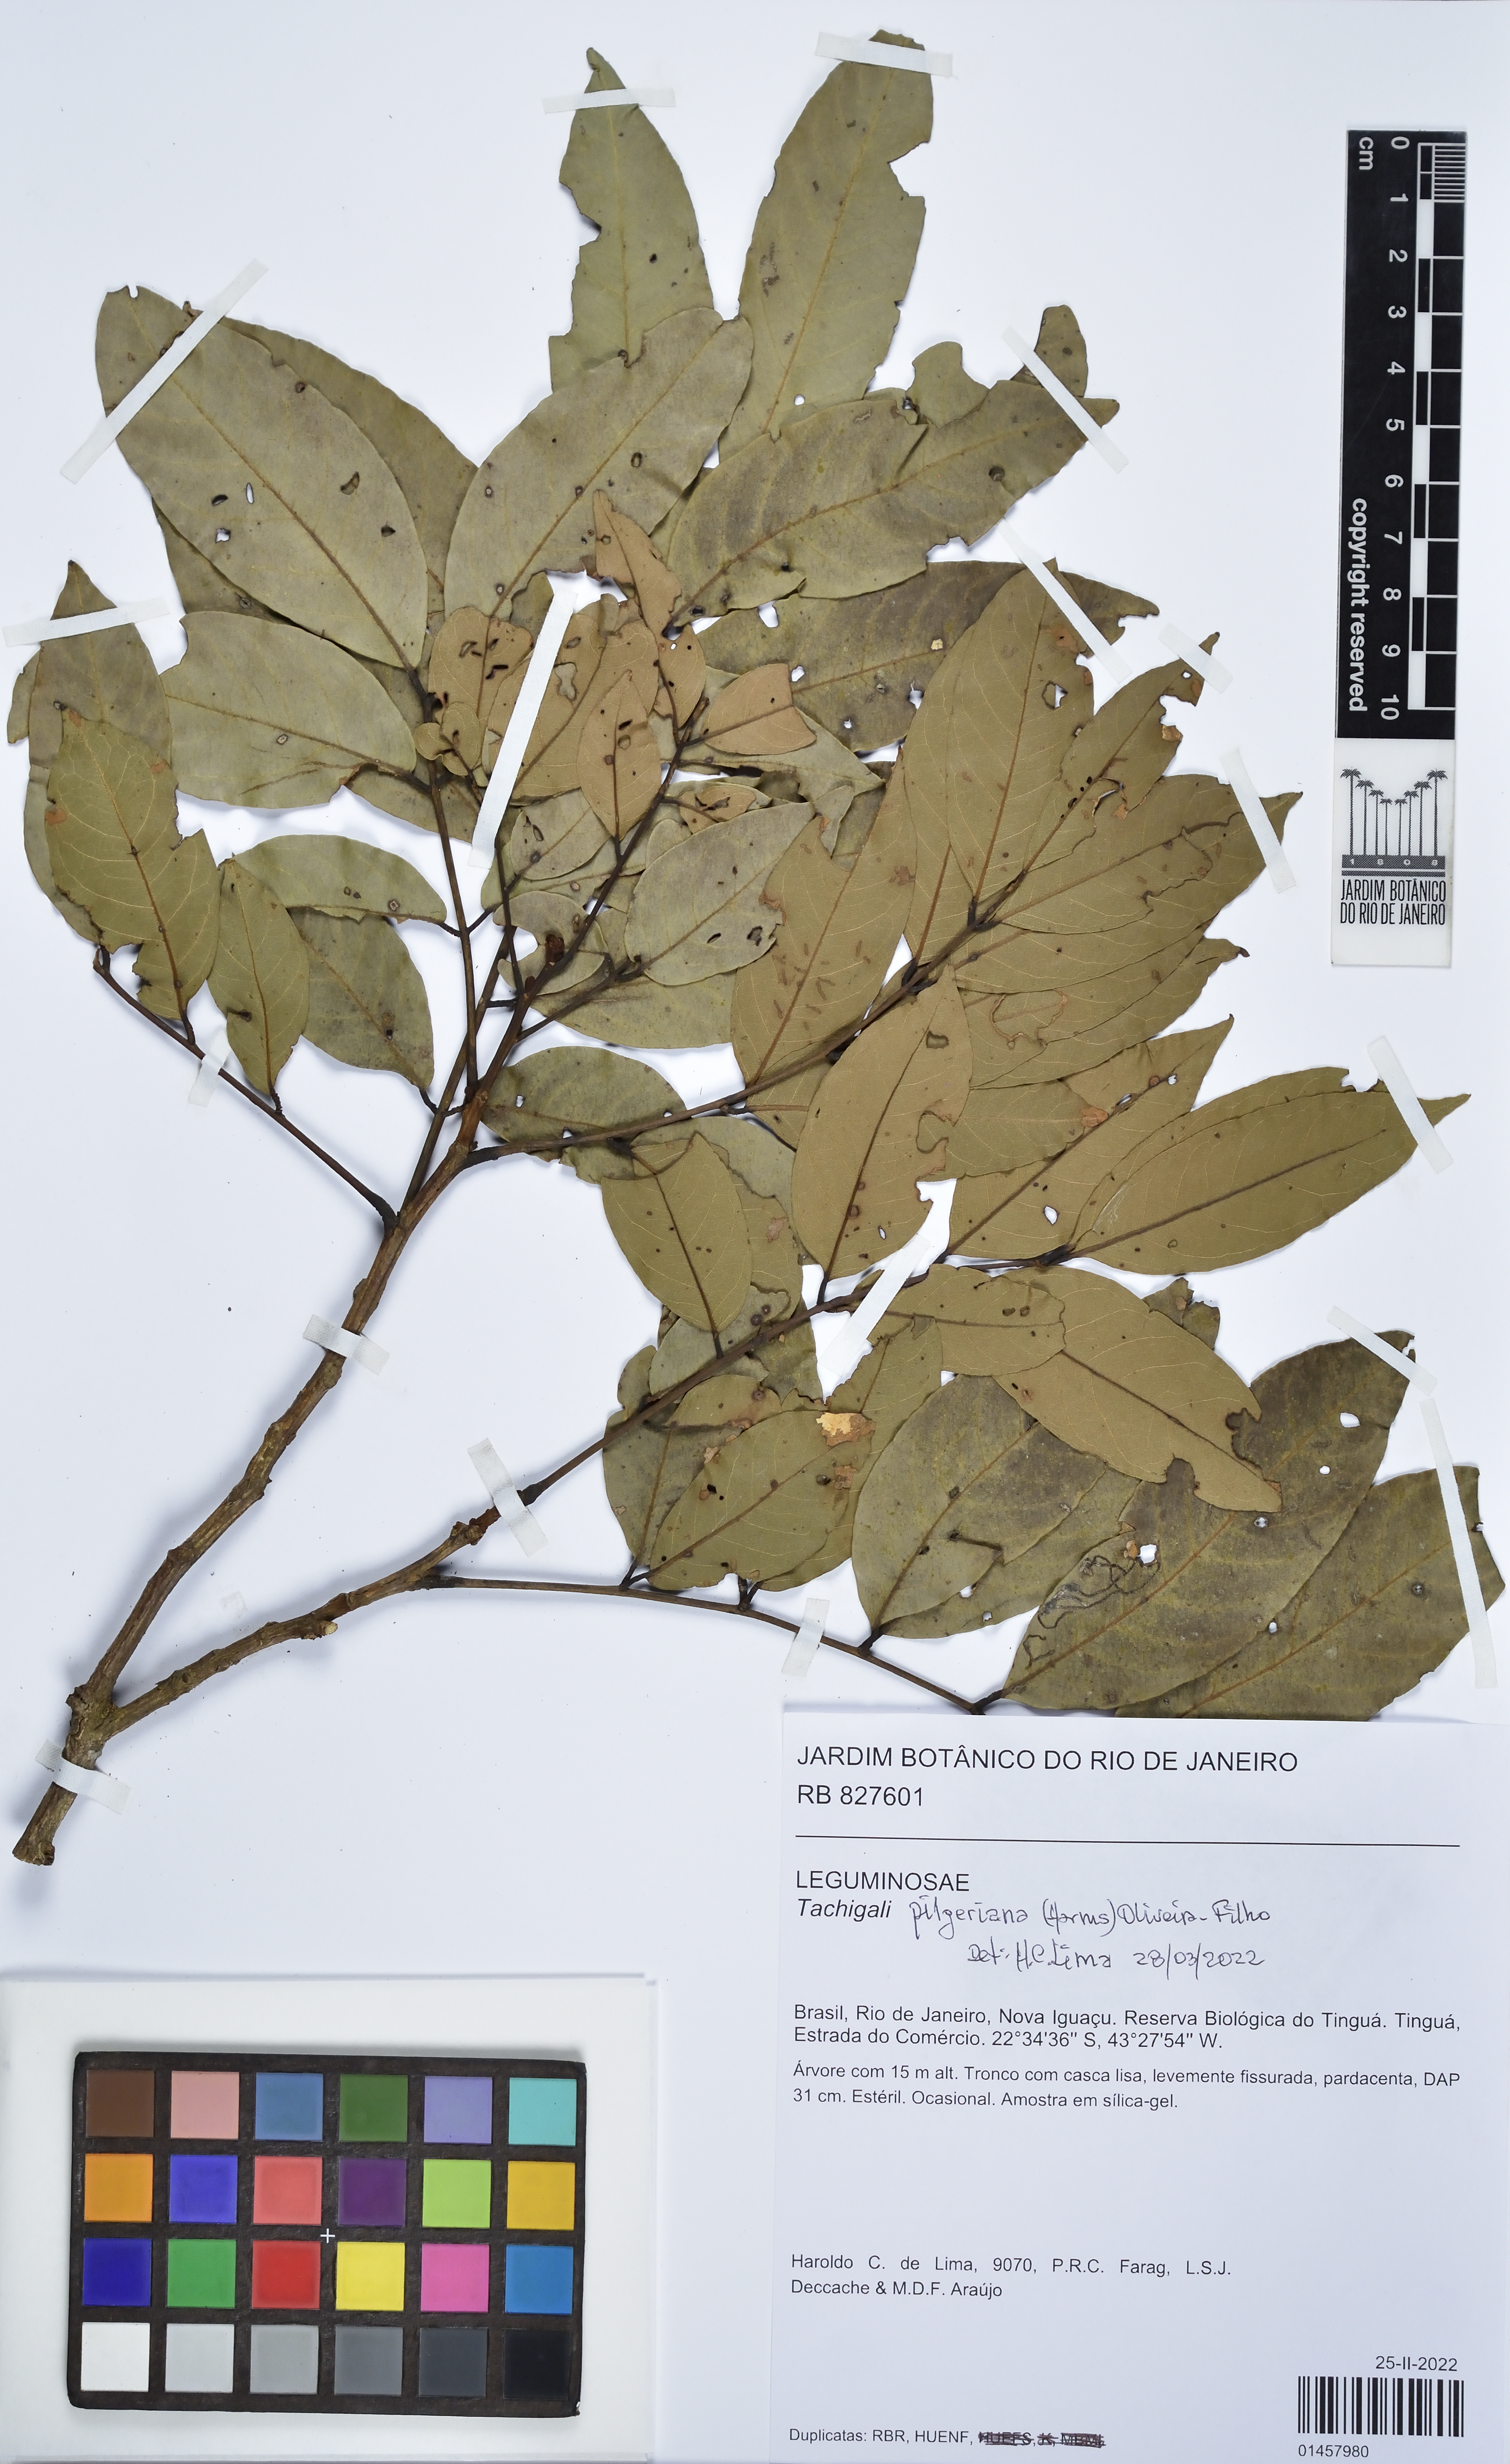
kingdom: Plantae
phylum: Tracheophyta
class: Magnoliopsida
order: Fabales
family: Fabaceae
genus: Tachigali
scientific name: Tachigali pilgeriana
